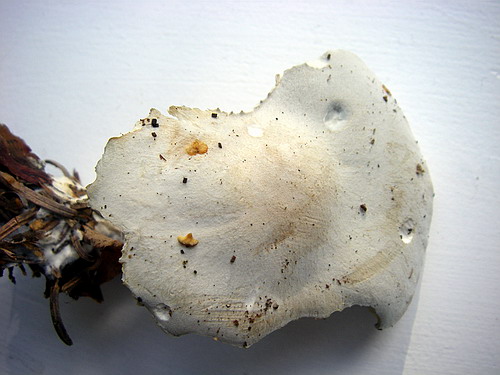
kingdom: Fungi
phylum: Basidiomycota
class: Agaricomycetes
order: Agaricales
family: Tricholomataceae
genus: Clitocybe
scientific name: Clitocybe odora
